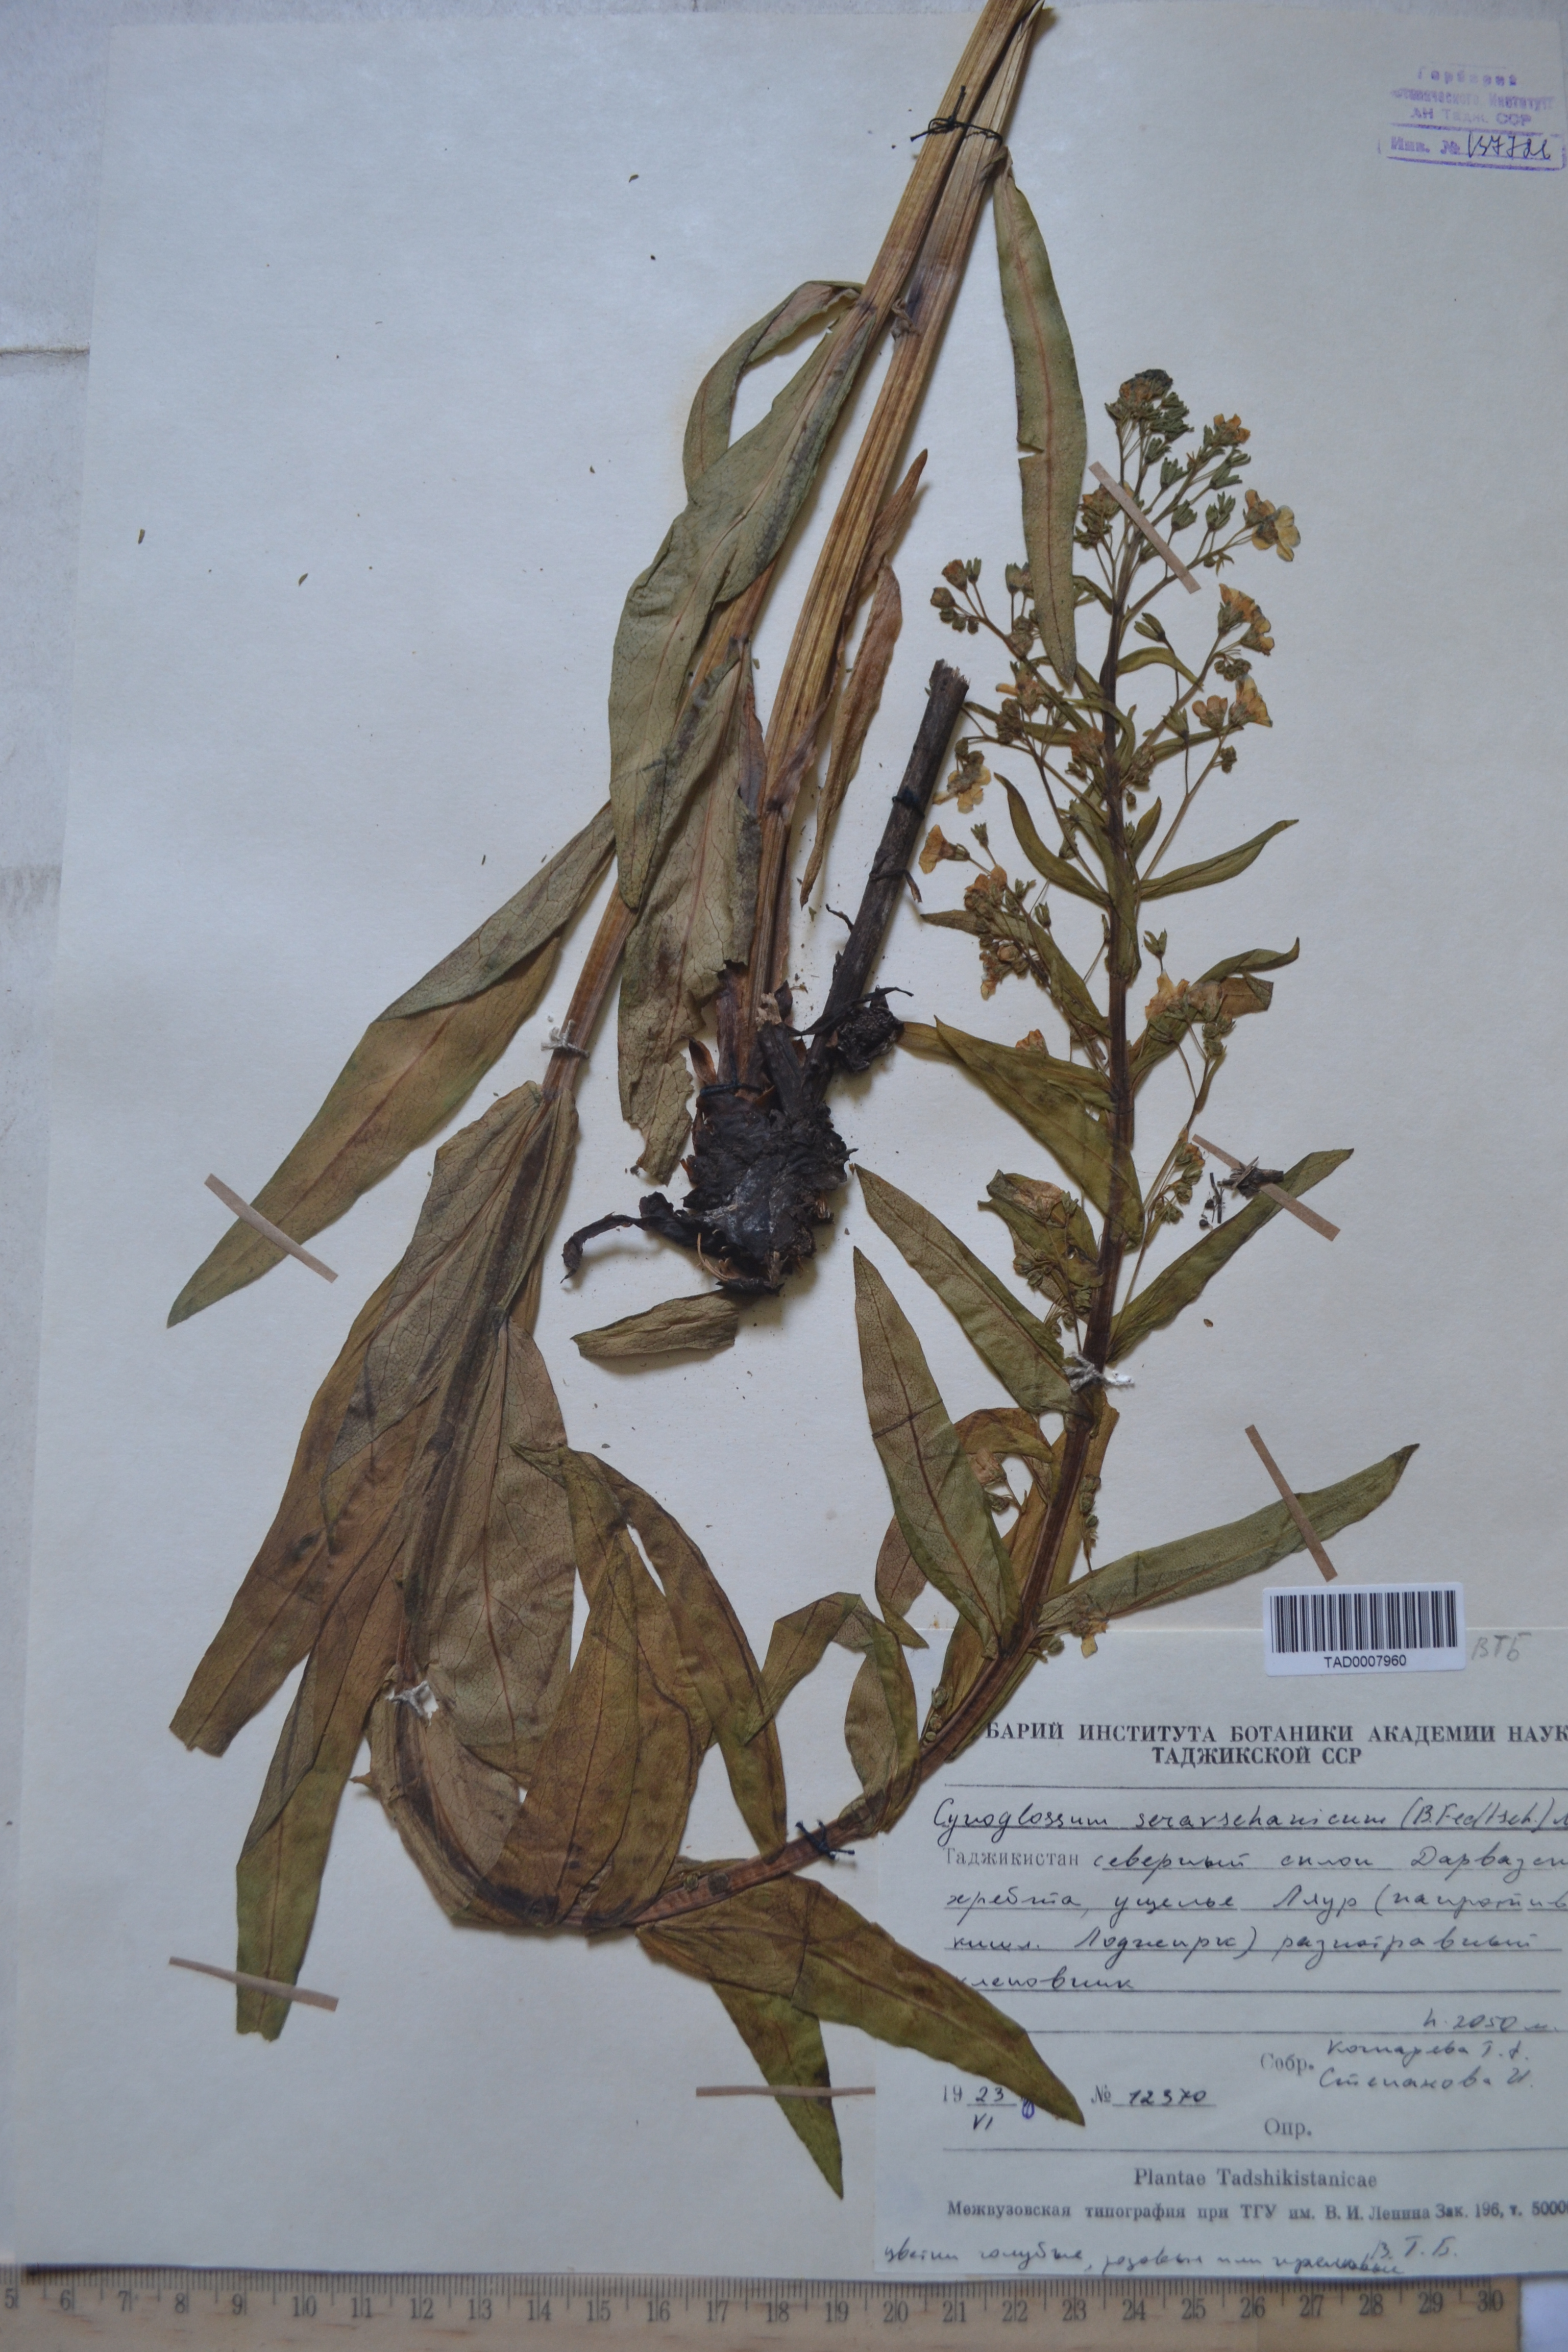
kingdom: Plantae
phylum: Tracheophyta
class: Magnoliopsida
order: Boraginales
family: Boraginaceae
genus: Cynoglossum
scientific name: Cynoglossum
